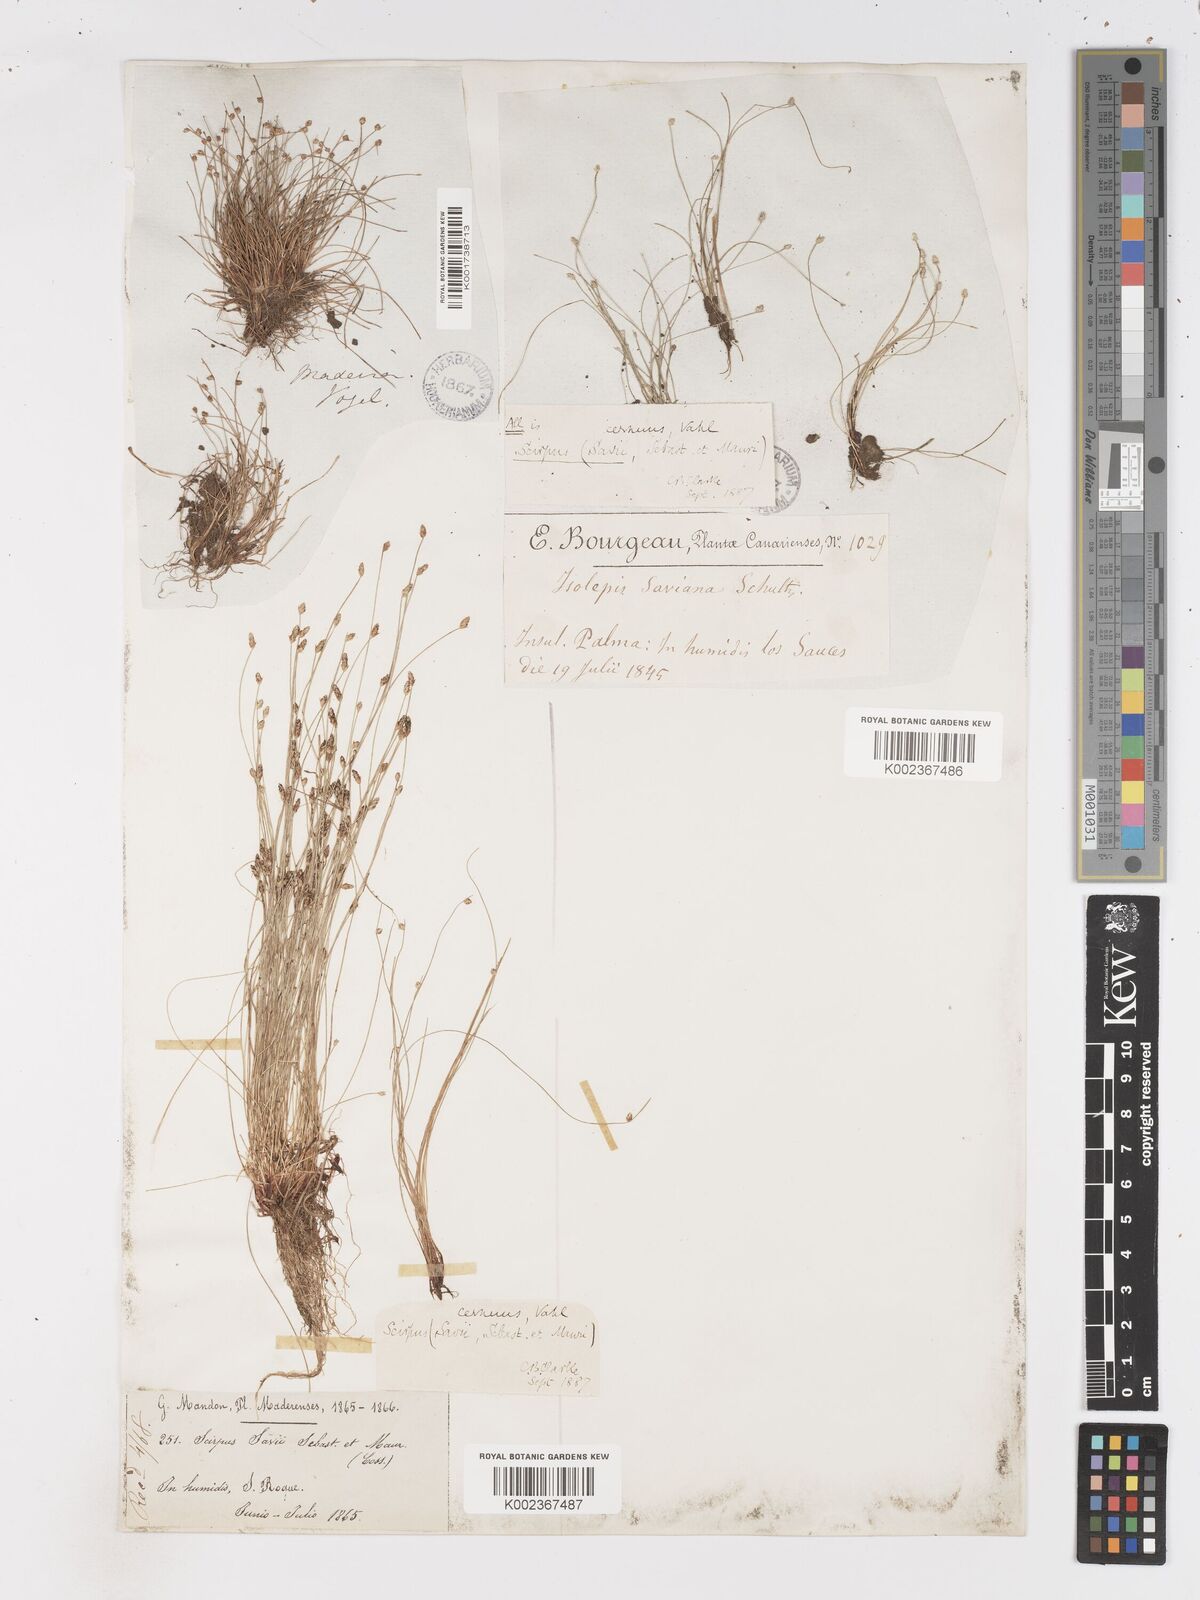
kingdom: Plantae
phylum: Tracheophyta
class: Liliopsida
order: Poales
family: Cyperaceae
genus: Isolepis
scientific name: Isolepis cernua
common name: Slender club-rush
